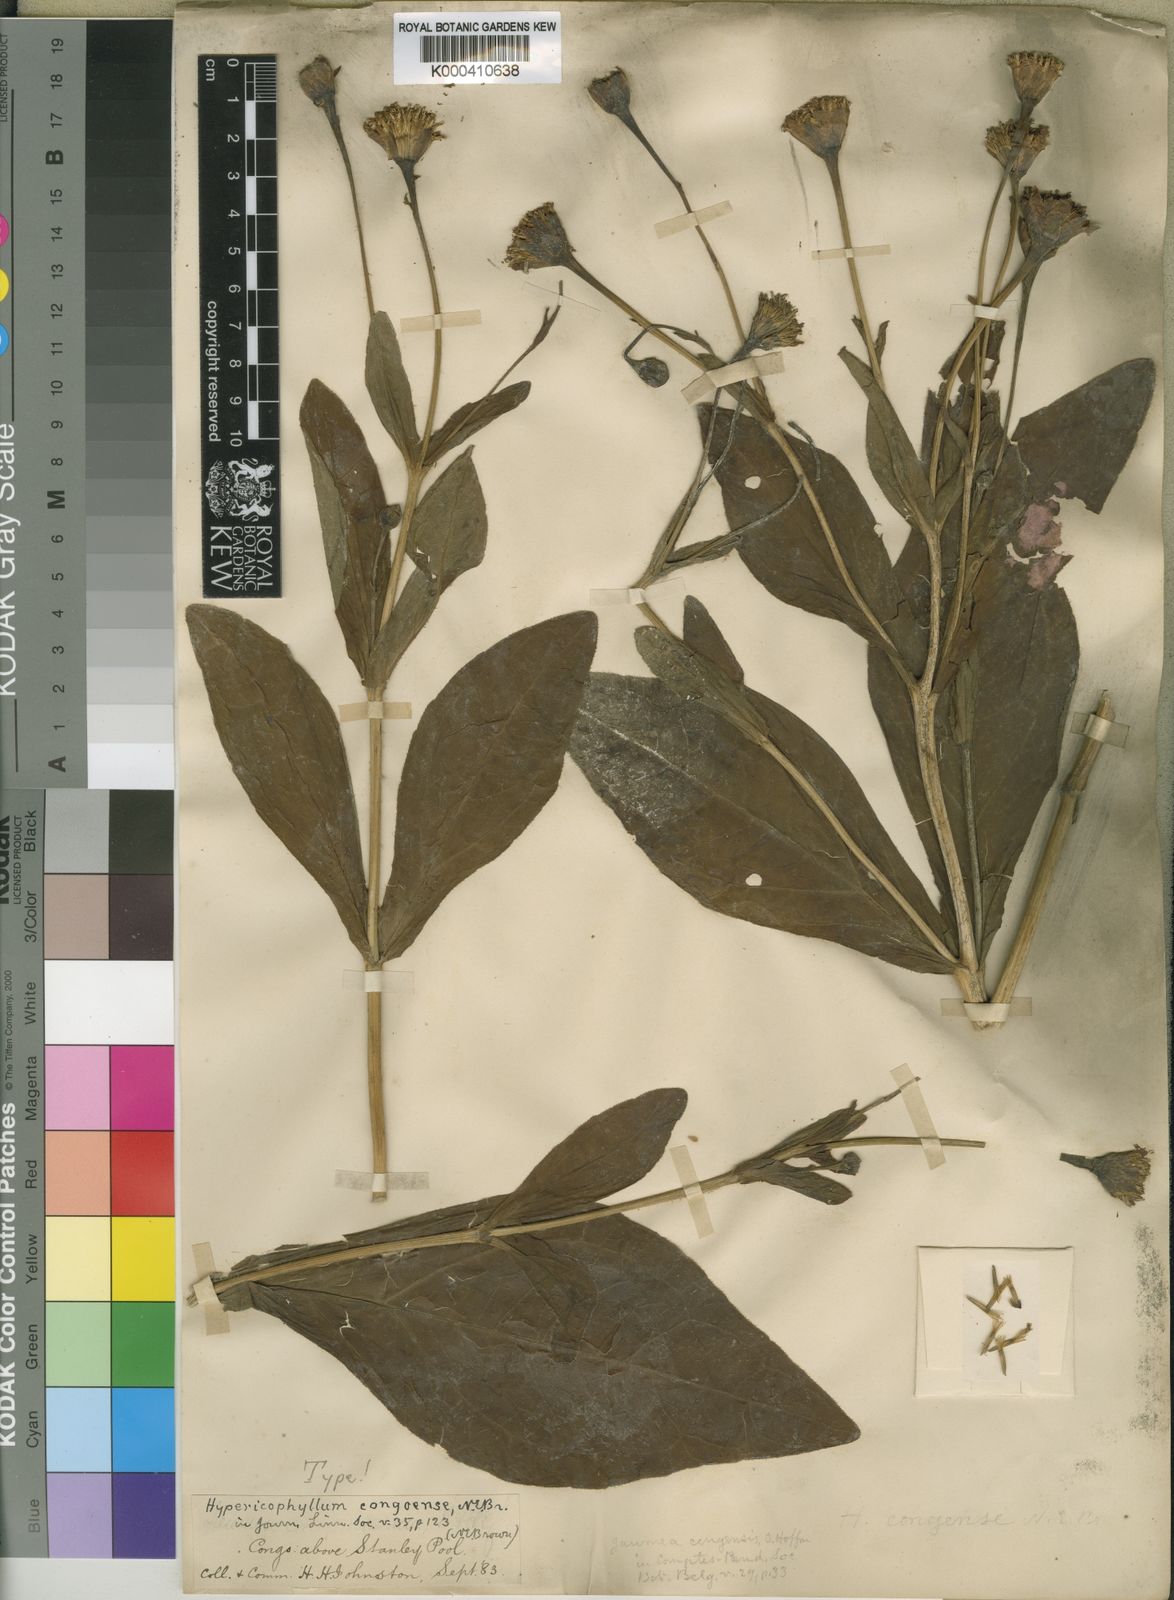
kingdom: Plantae
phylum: Tracheophyta
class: Magnoliopsida
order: Asterales
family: Asteraceae
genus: Hypericophyllum
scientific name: Hypericophyllum congoense
